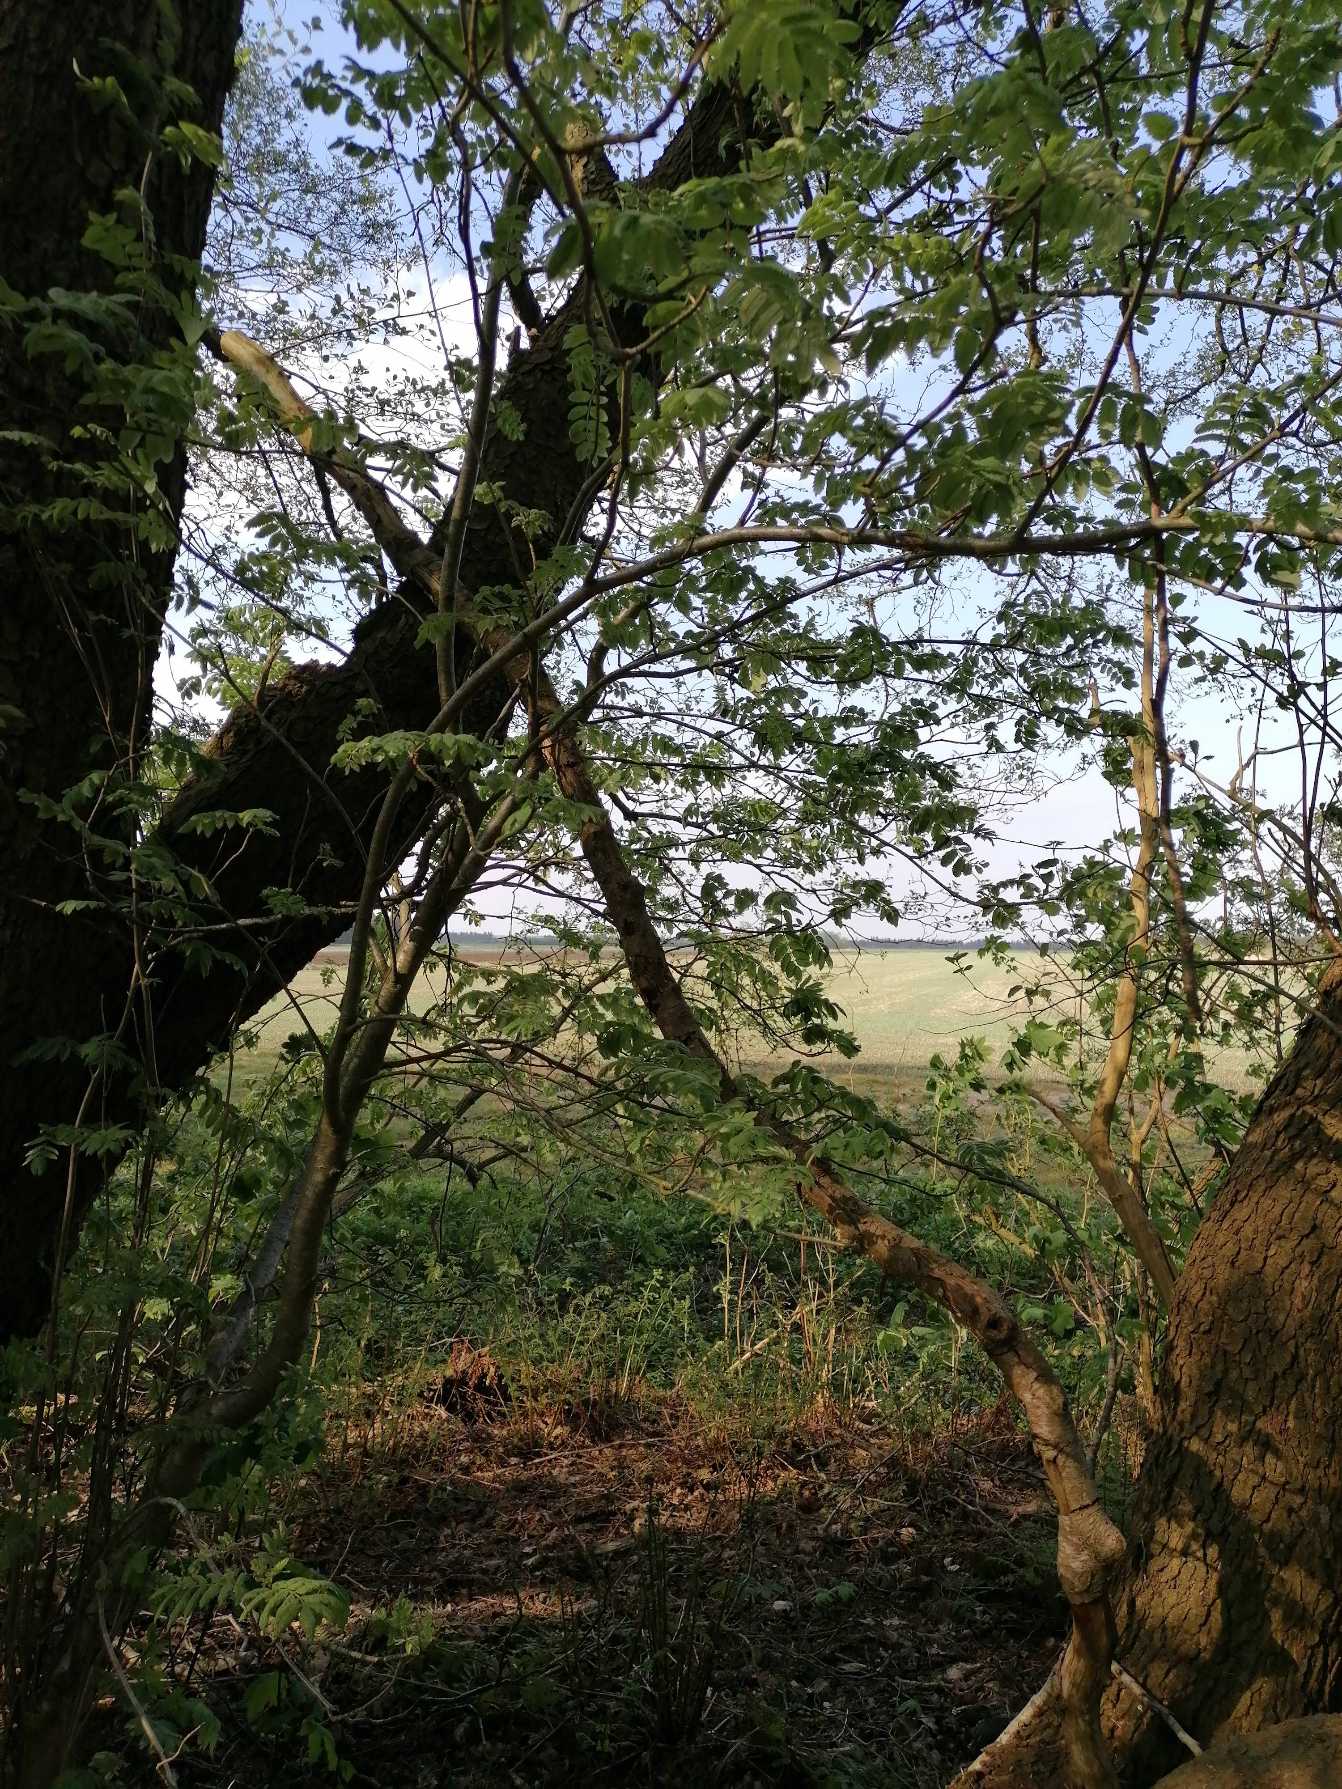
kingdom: Plantae
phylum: Tracheophyta
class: Magnoliopsida
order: Rosales
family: Rosaceae
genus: Sorbus
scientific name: Sorbus aucuparia
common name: Almindelig røn
